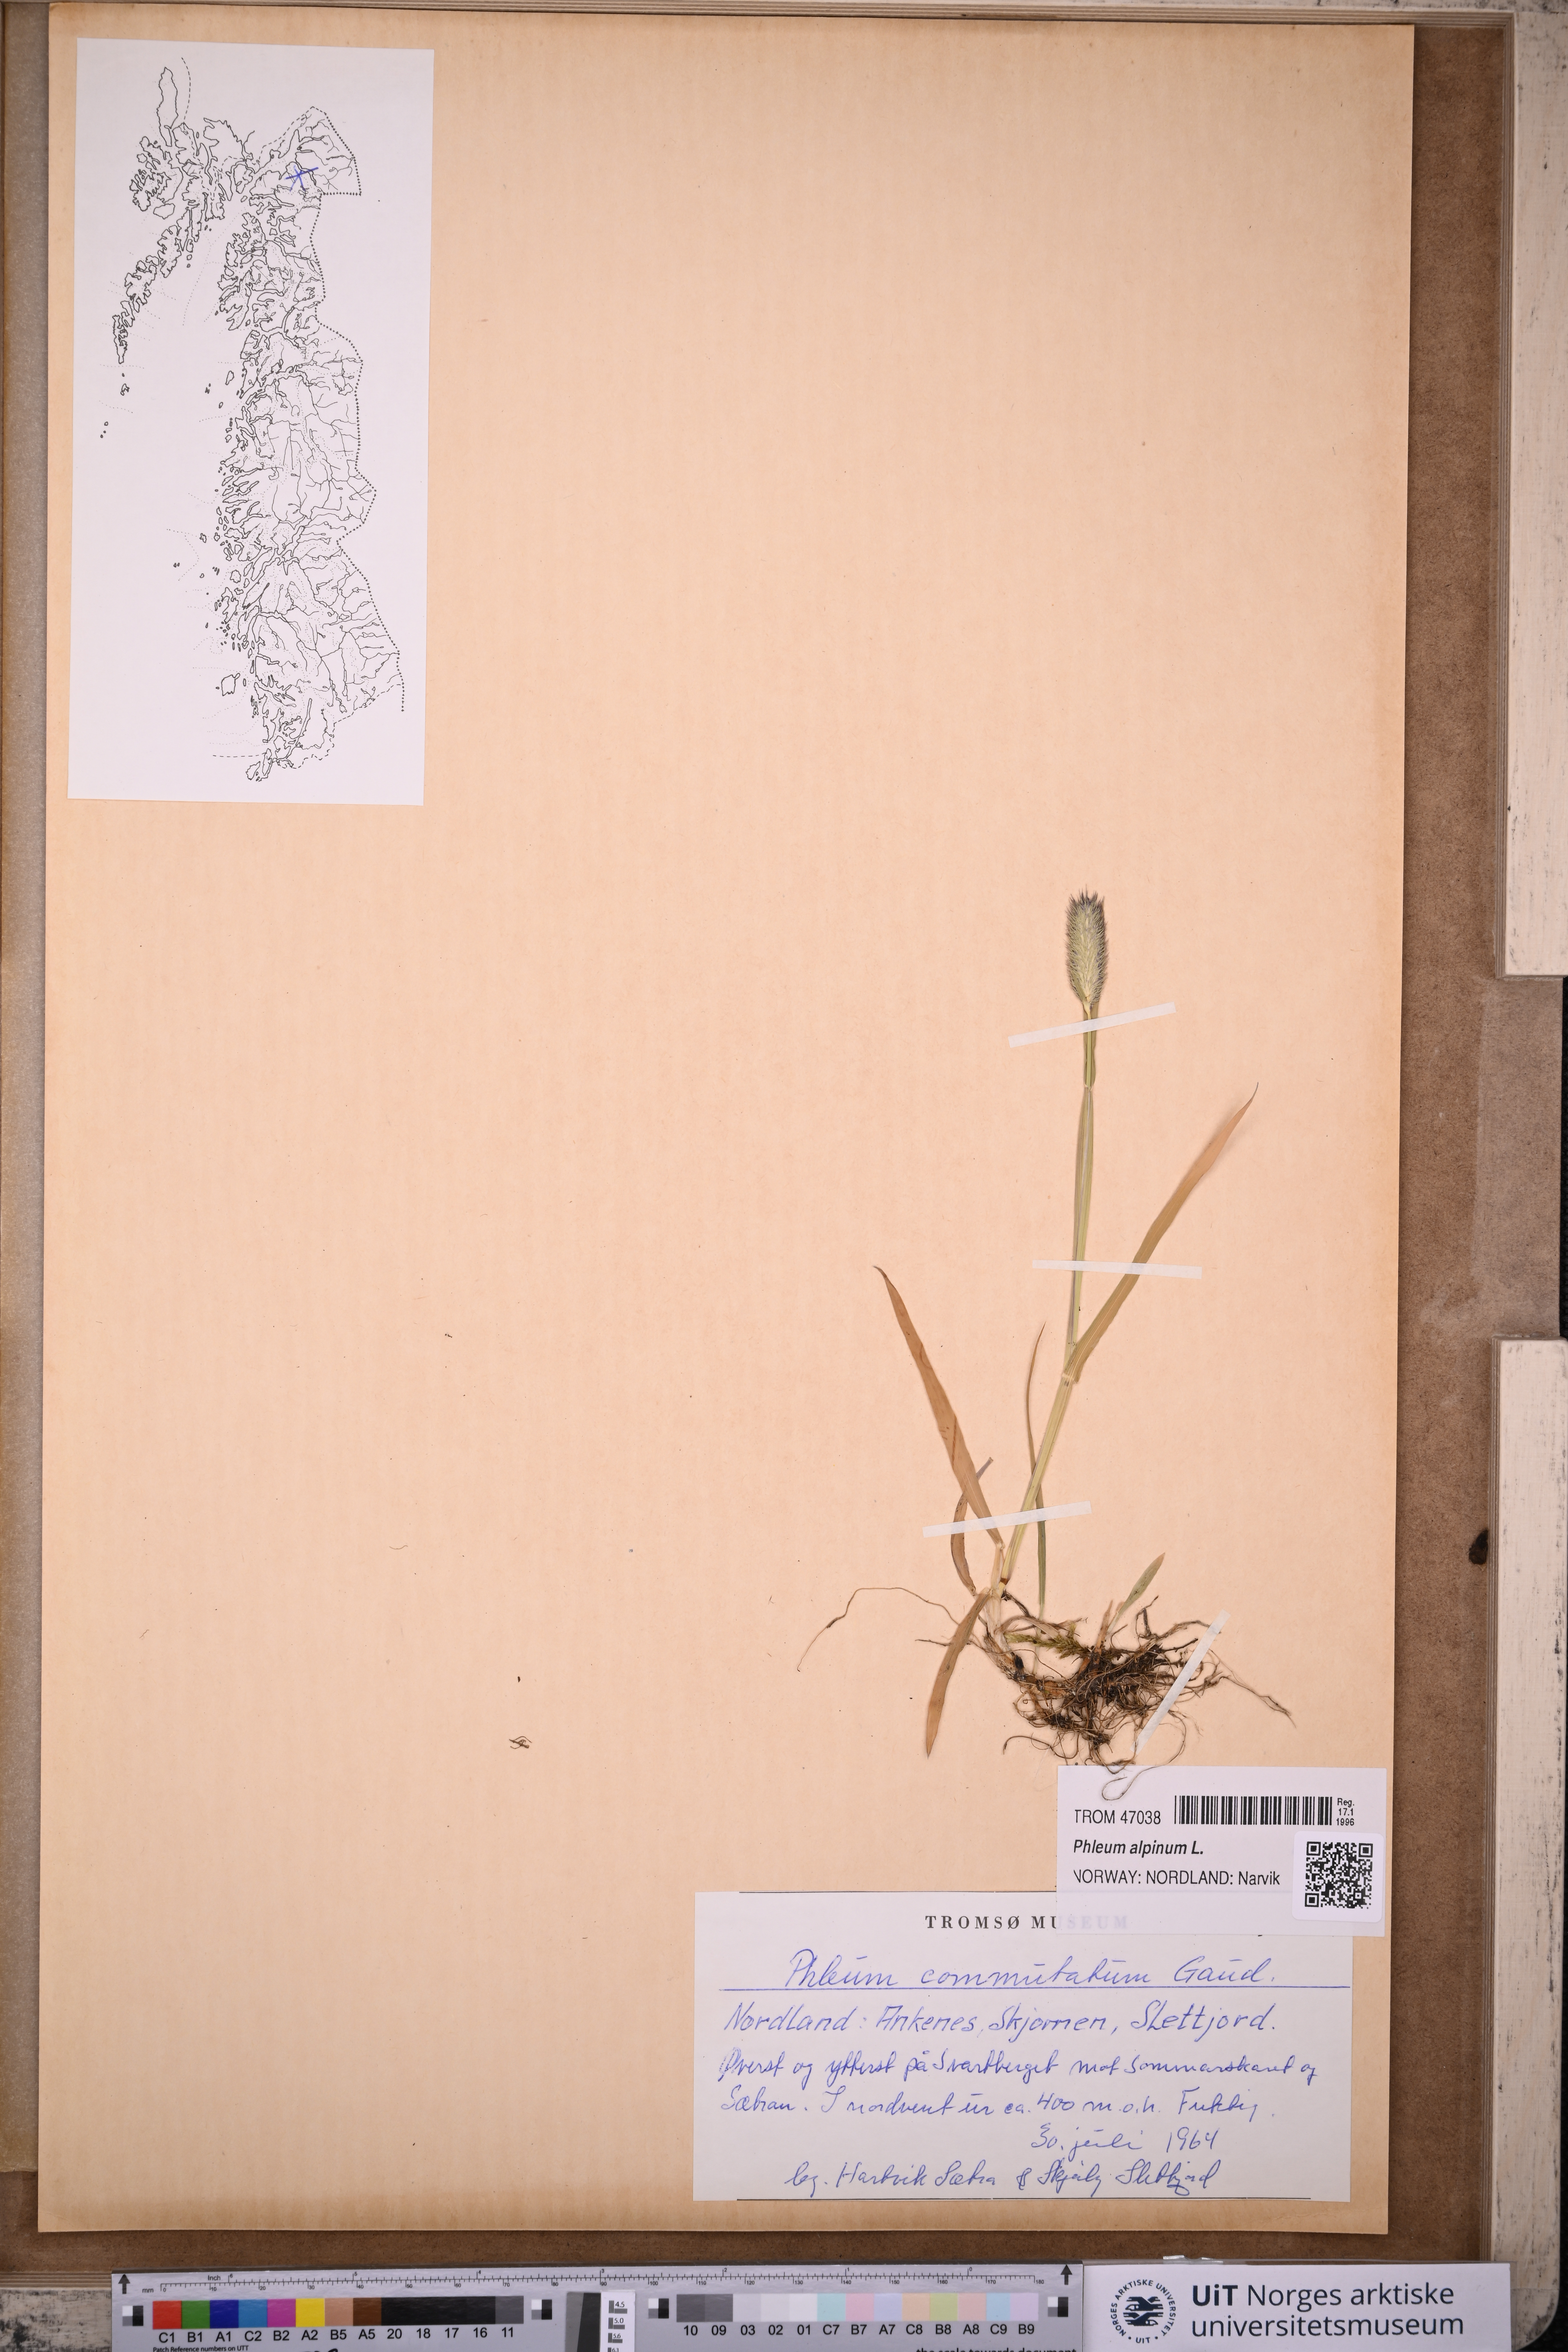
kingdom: Plantae
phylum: Tracheophyta
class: Liliopsida
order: Poales
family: Poaceae
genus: Phleum
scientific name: Phleum alpinum
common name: Alpine cat's-tail
